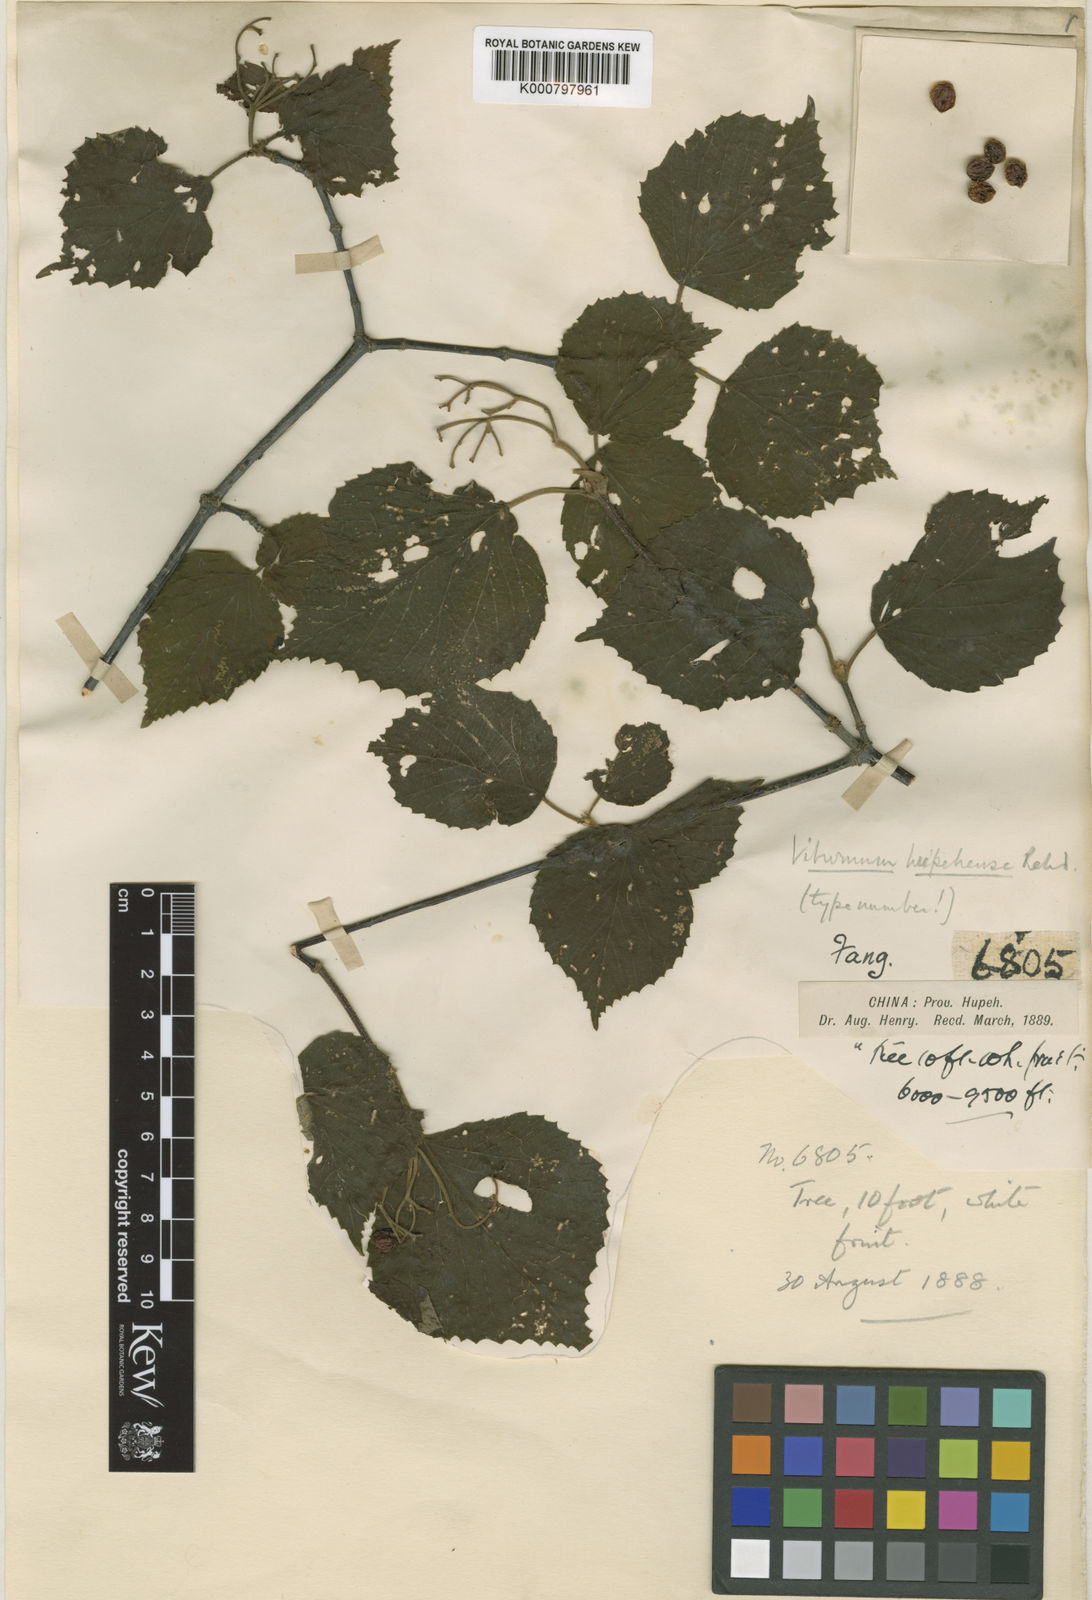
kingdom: Plantae
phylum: Tracheophyta
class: Magnoliopsida
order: Dipsacales
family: Viburnaceae
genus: Viburnum
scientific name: Viburnum betulifolium
